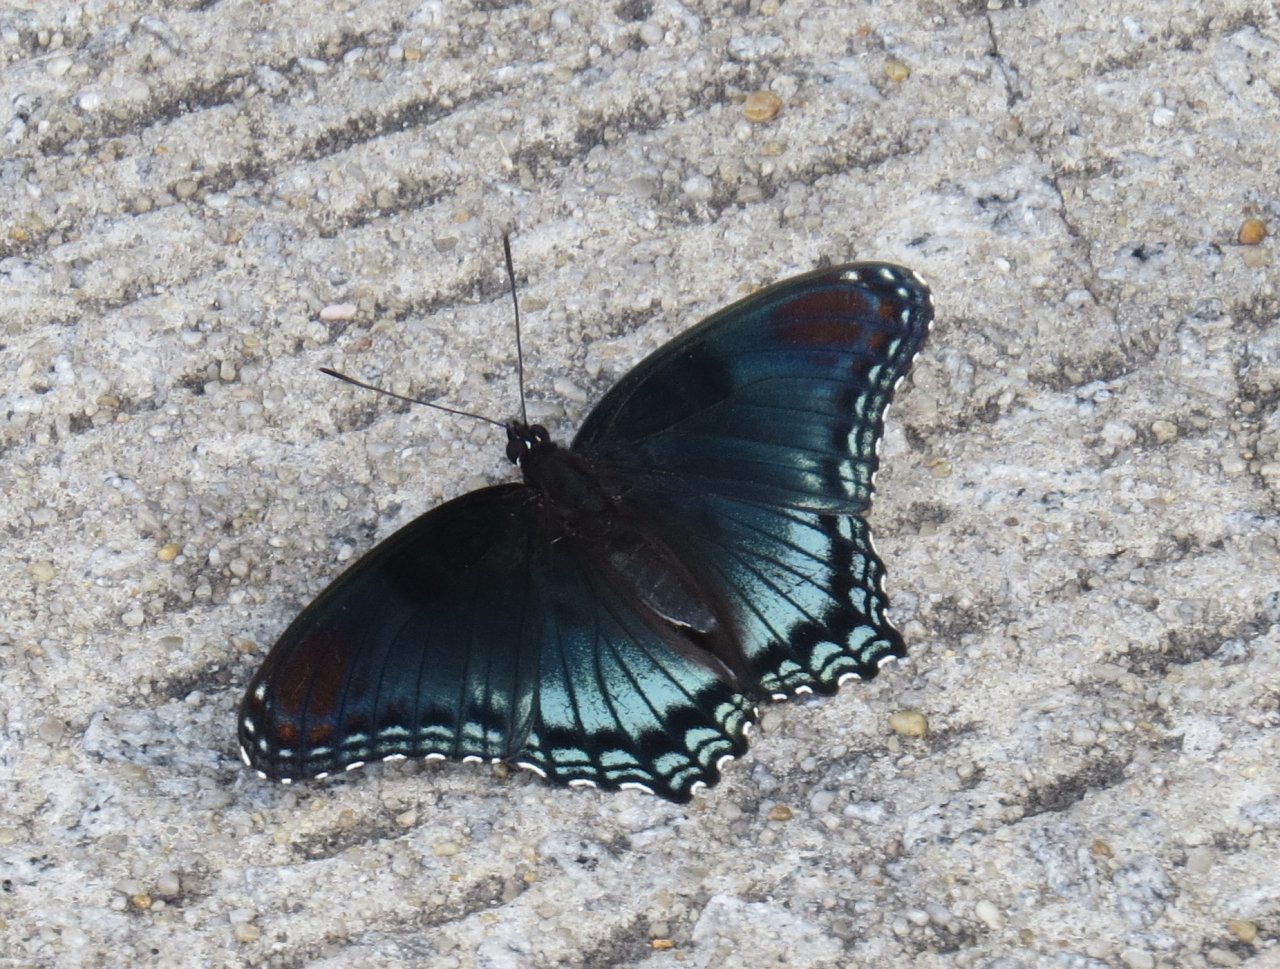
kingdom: Animalia
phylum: Arthropoda
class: Insecta
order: Lepidoptera
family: Nymphalidae
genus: Limenitis
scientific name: Limenitis astyanax
